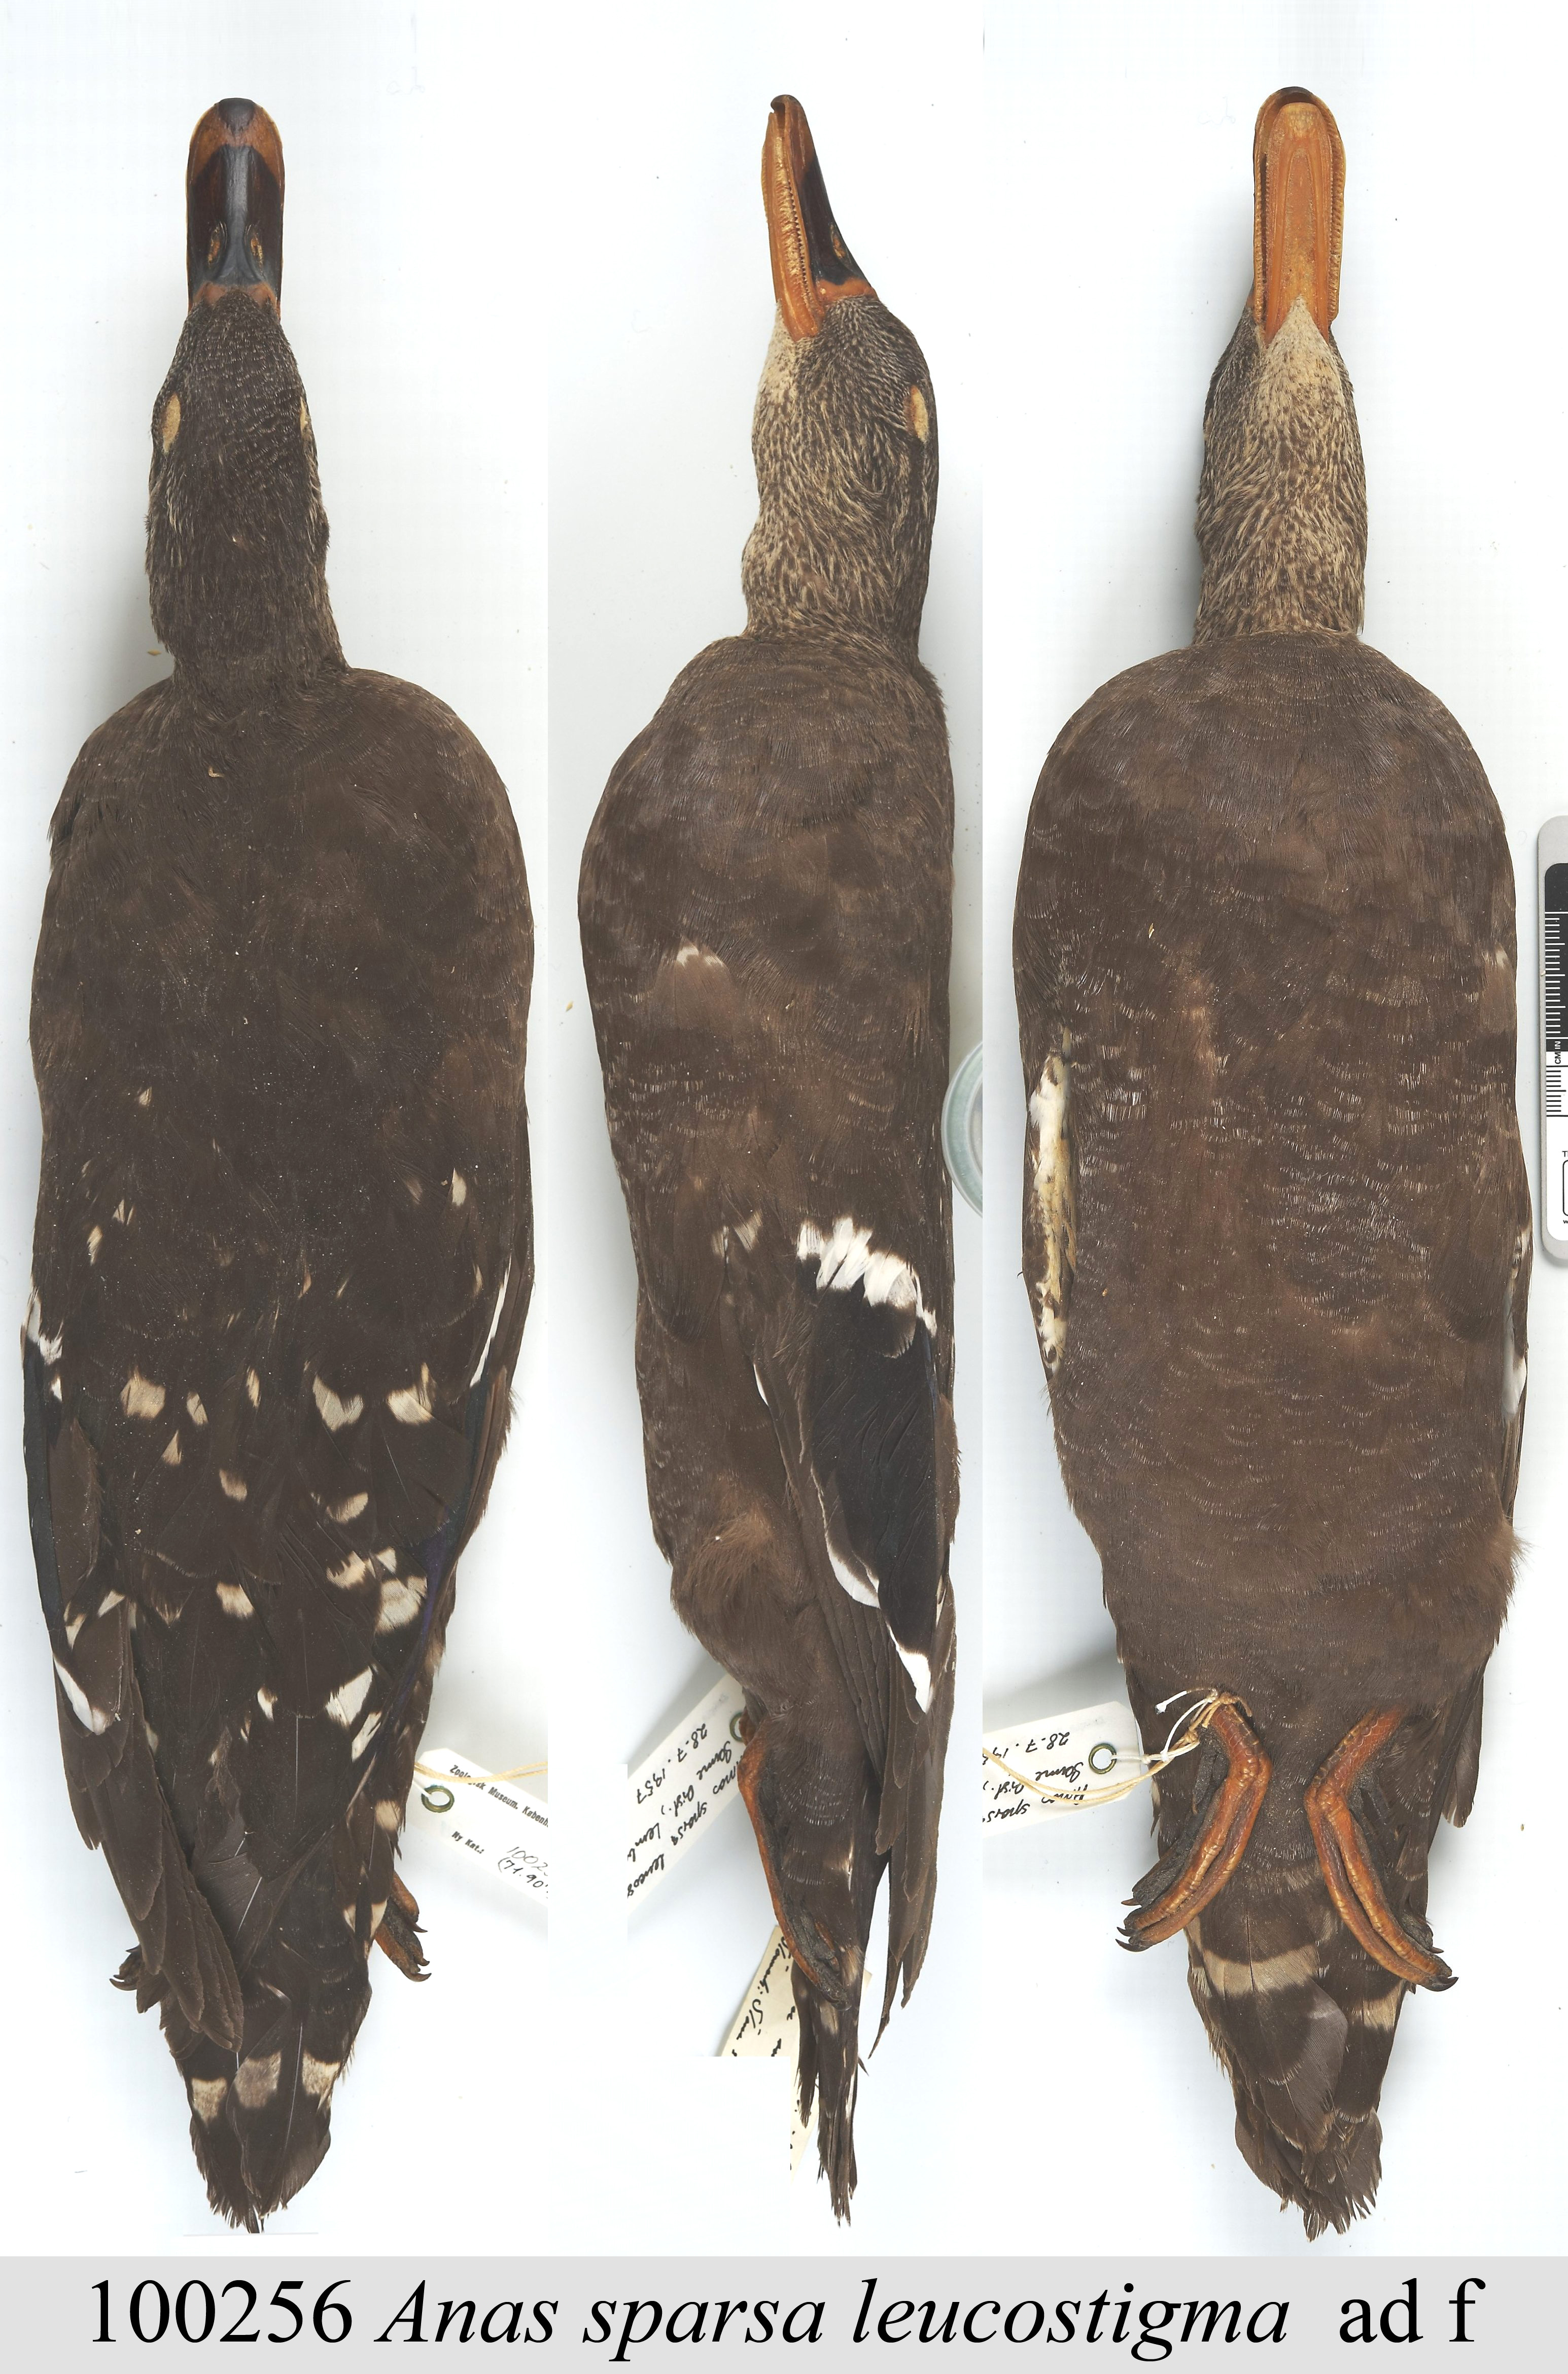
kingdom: Animalia
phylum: Chordata
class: Aves
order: Anseriformes
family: Anatidae
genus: Anas
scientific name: Anas sparsa
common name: African black duck
